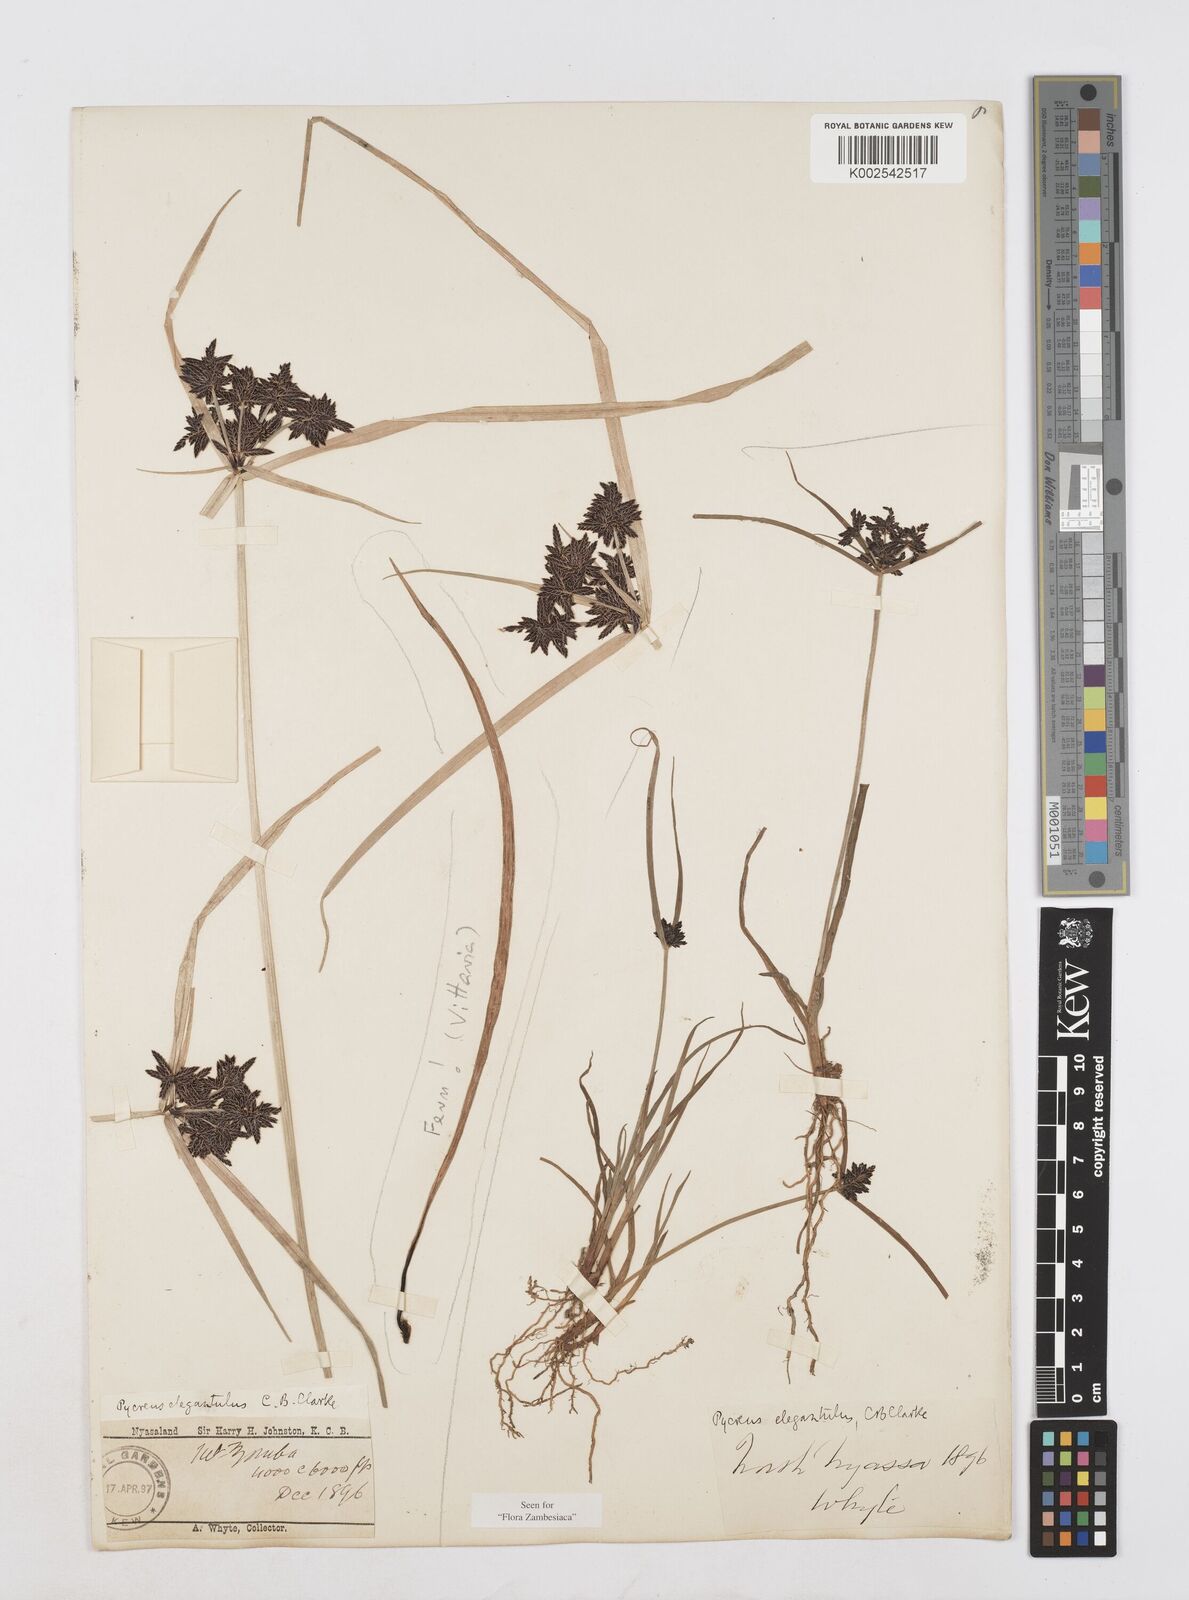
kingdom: Plantae
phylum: Tracheophyta
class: Liliopsida
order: Poales
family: Cyperaceae
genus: Cyperus
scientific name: Cyperus elegantulus
